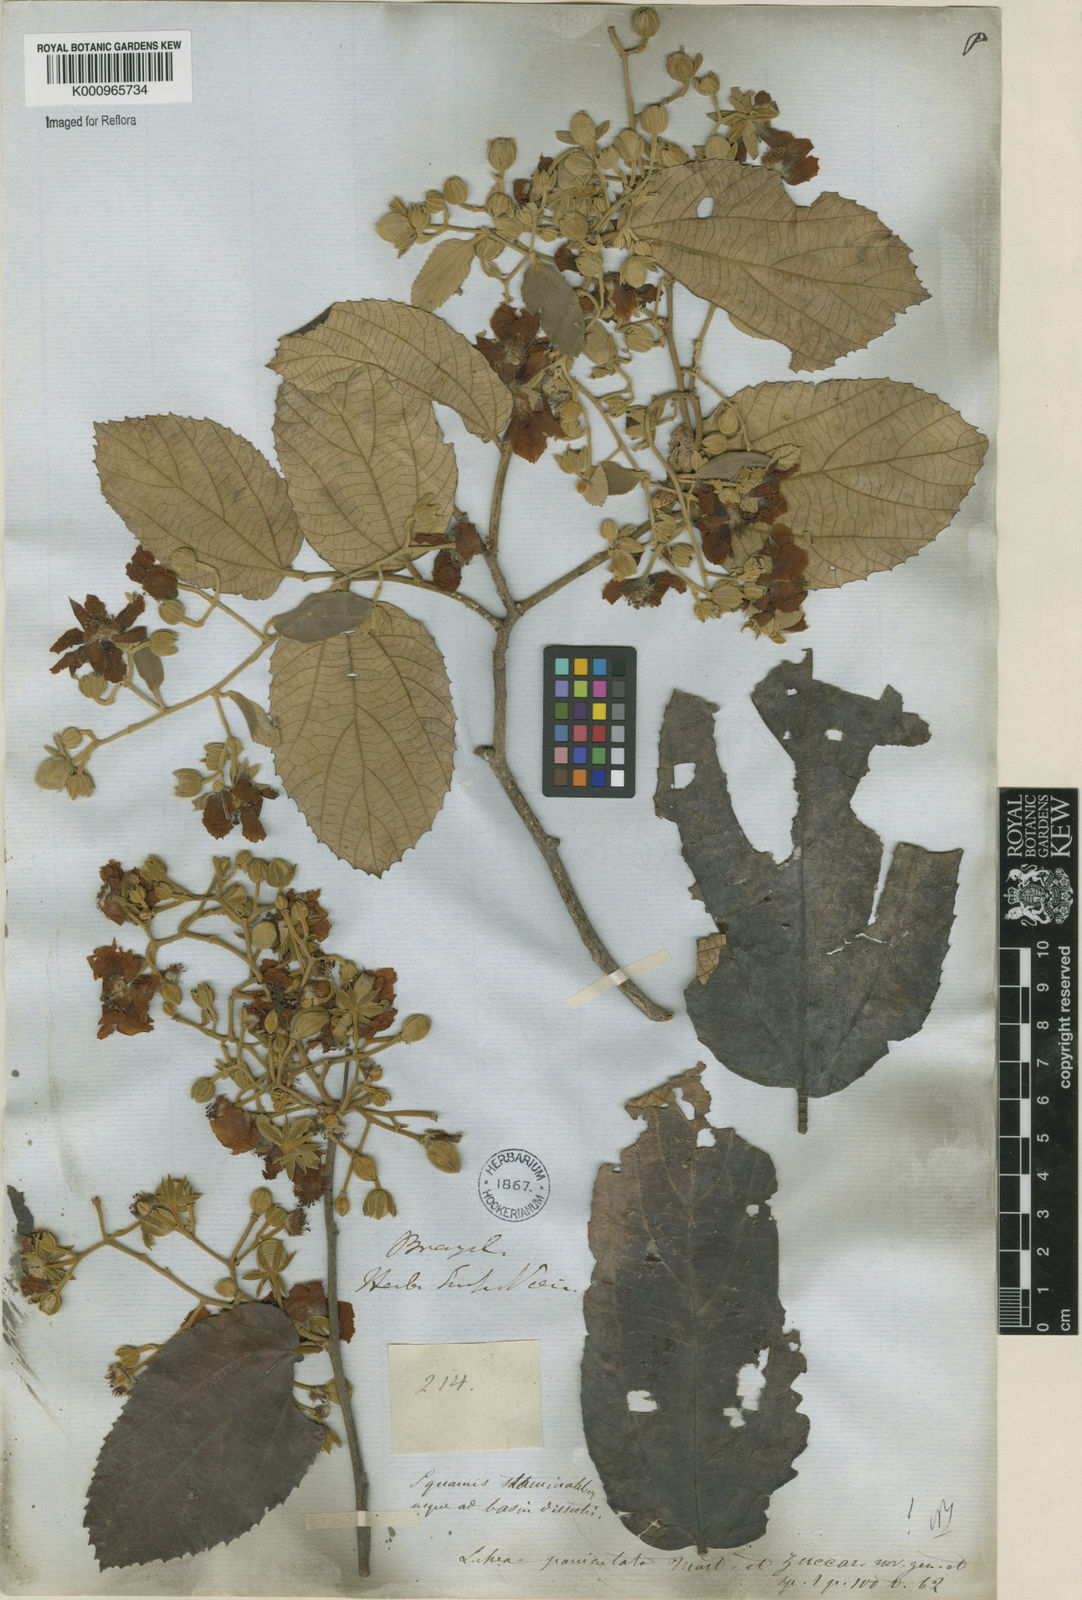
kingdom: Plantae
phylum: Tracheophyta
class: Magnoliopsida
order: Malvales
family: Malvaceae
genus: Luehea
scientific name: Luehea paniculata
